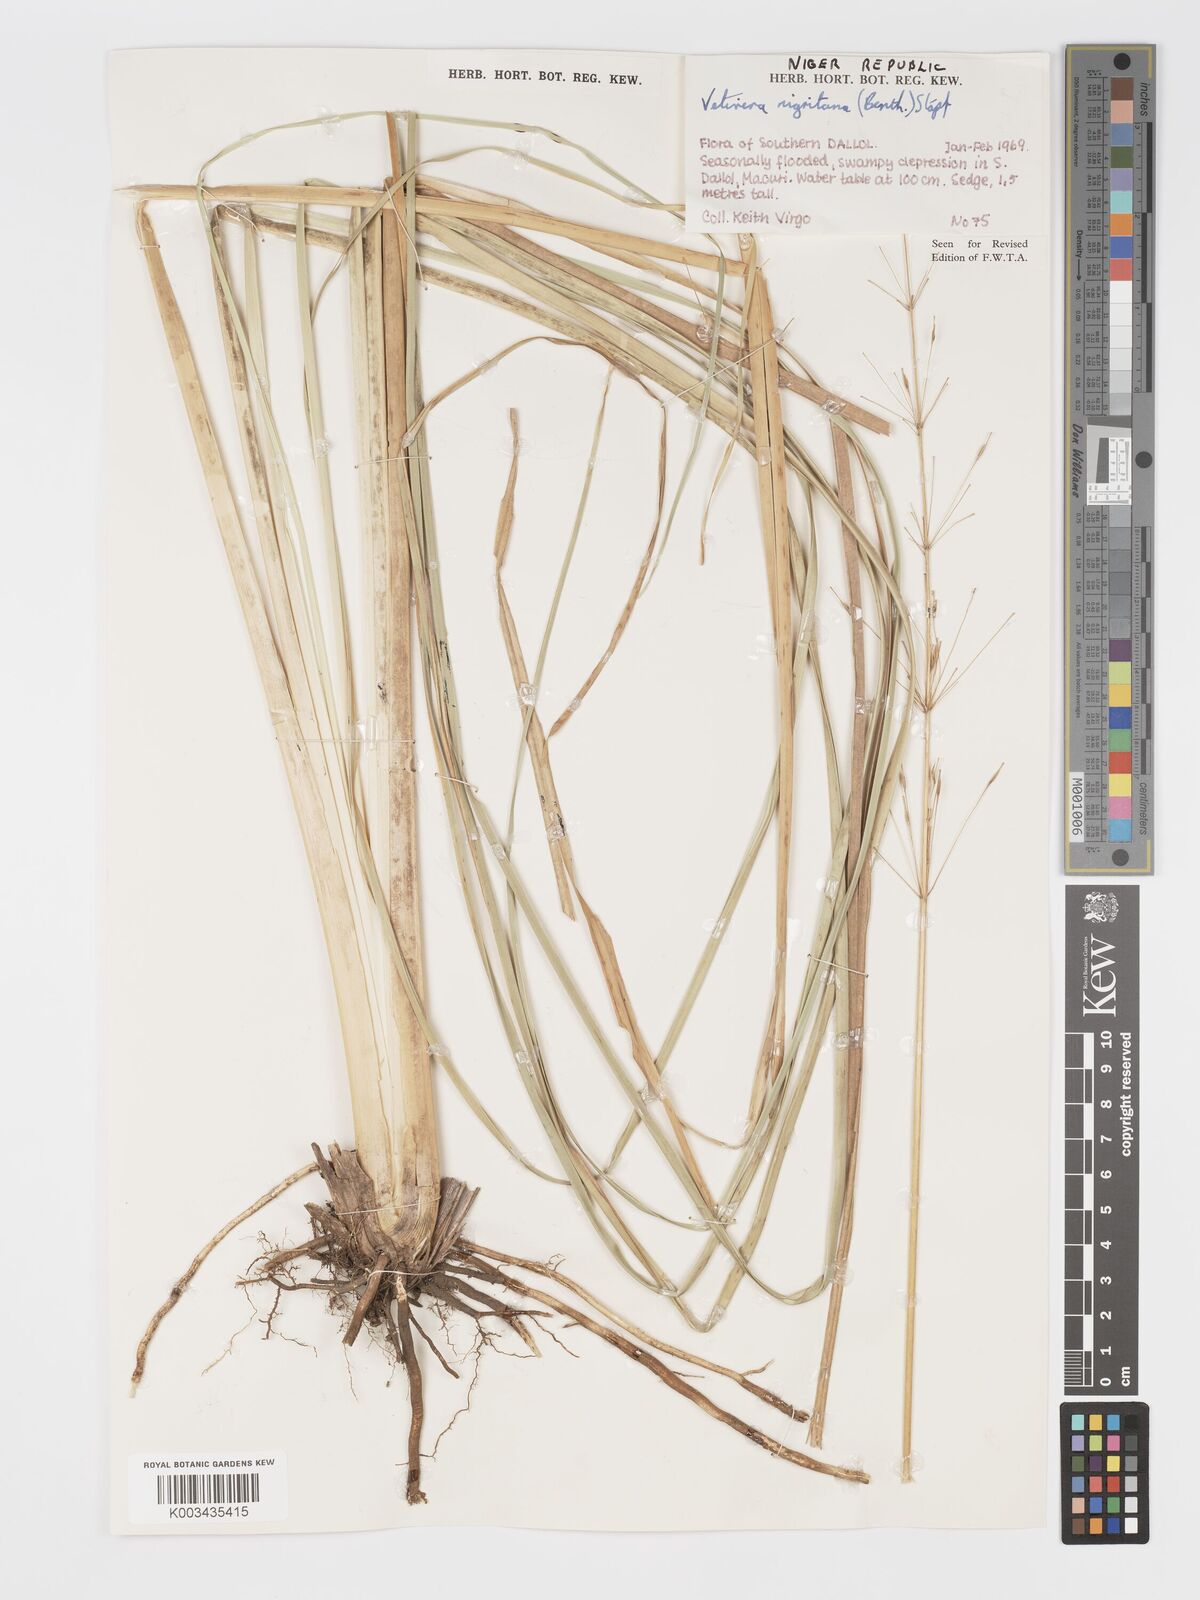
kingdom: Plantae
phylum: Tracheophyta
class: Liliopsida
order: Poales
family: Poaceae
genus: Chrysopogon
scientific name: Chrysopogon nigritanus
